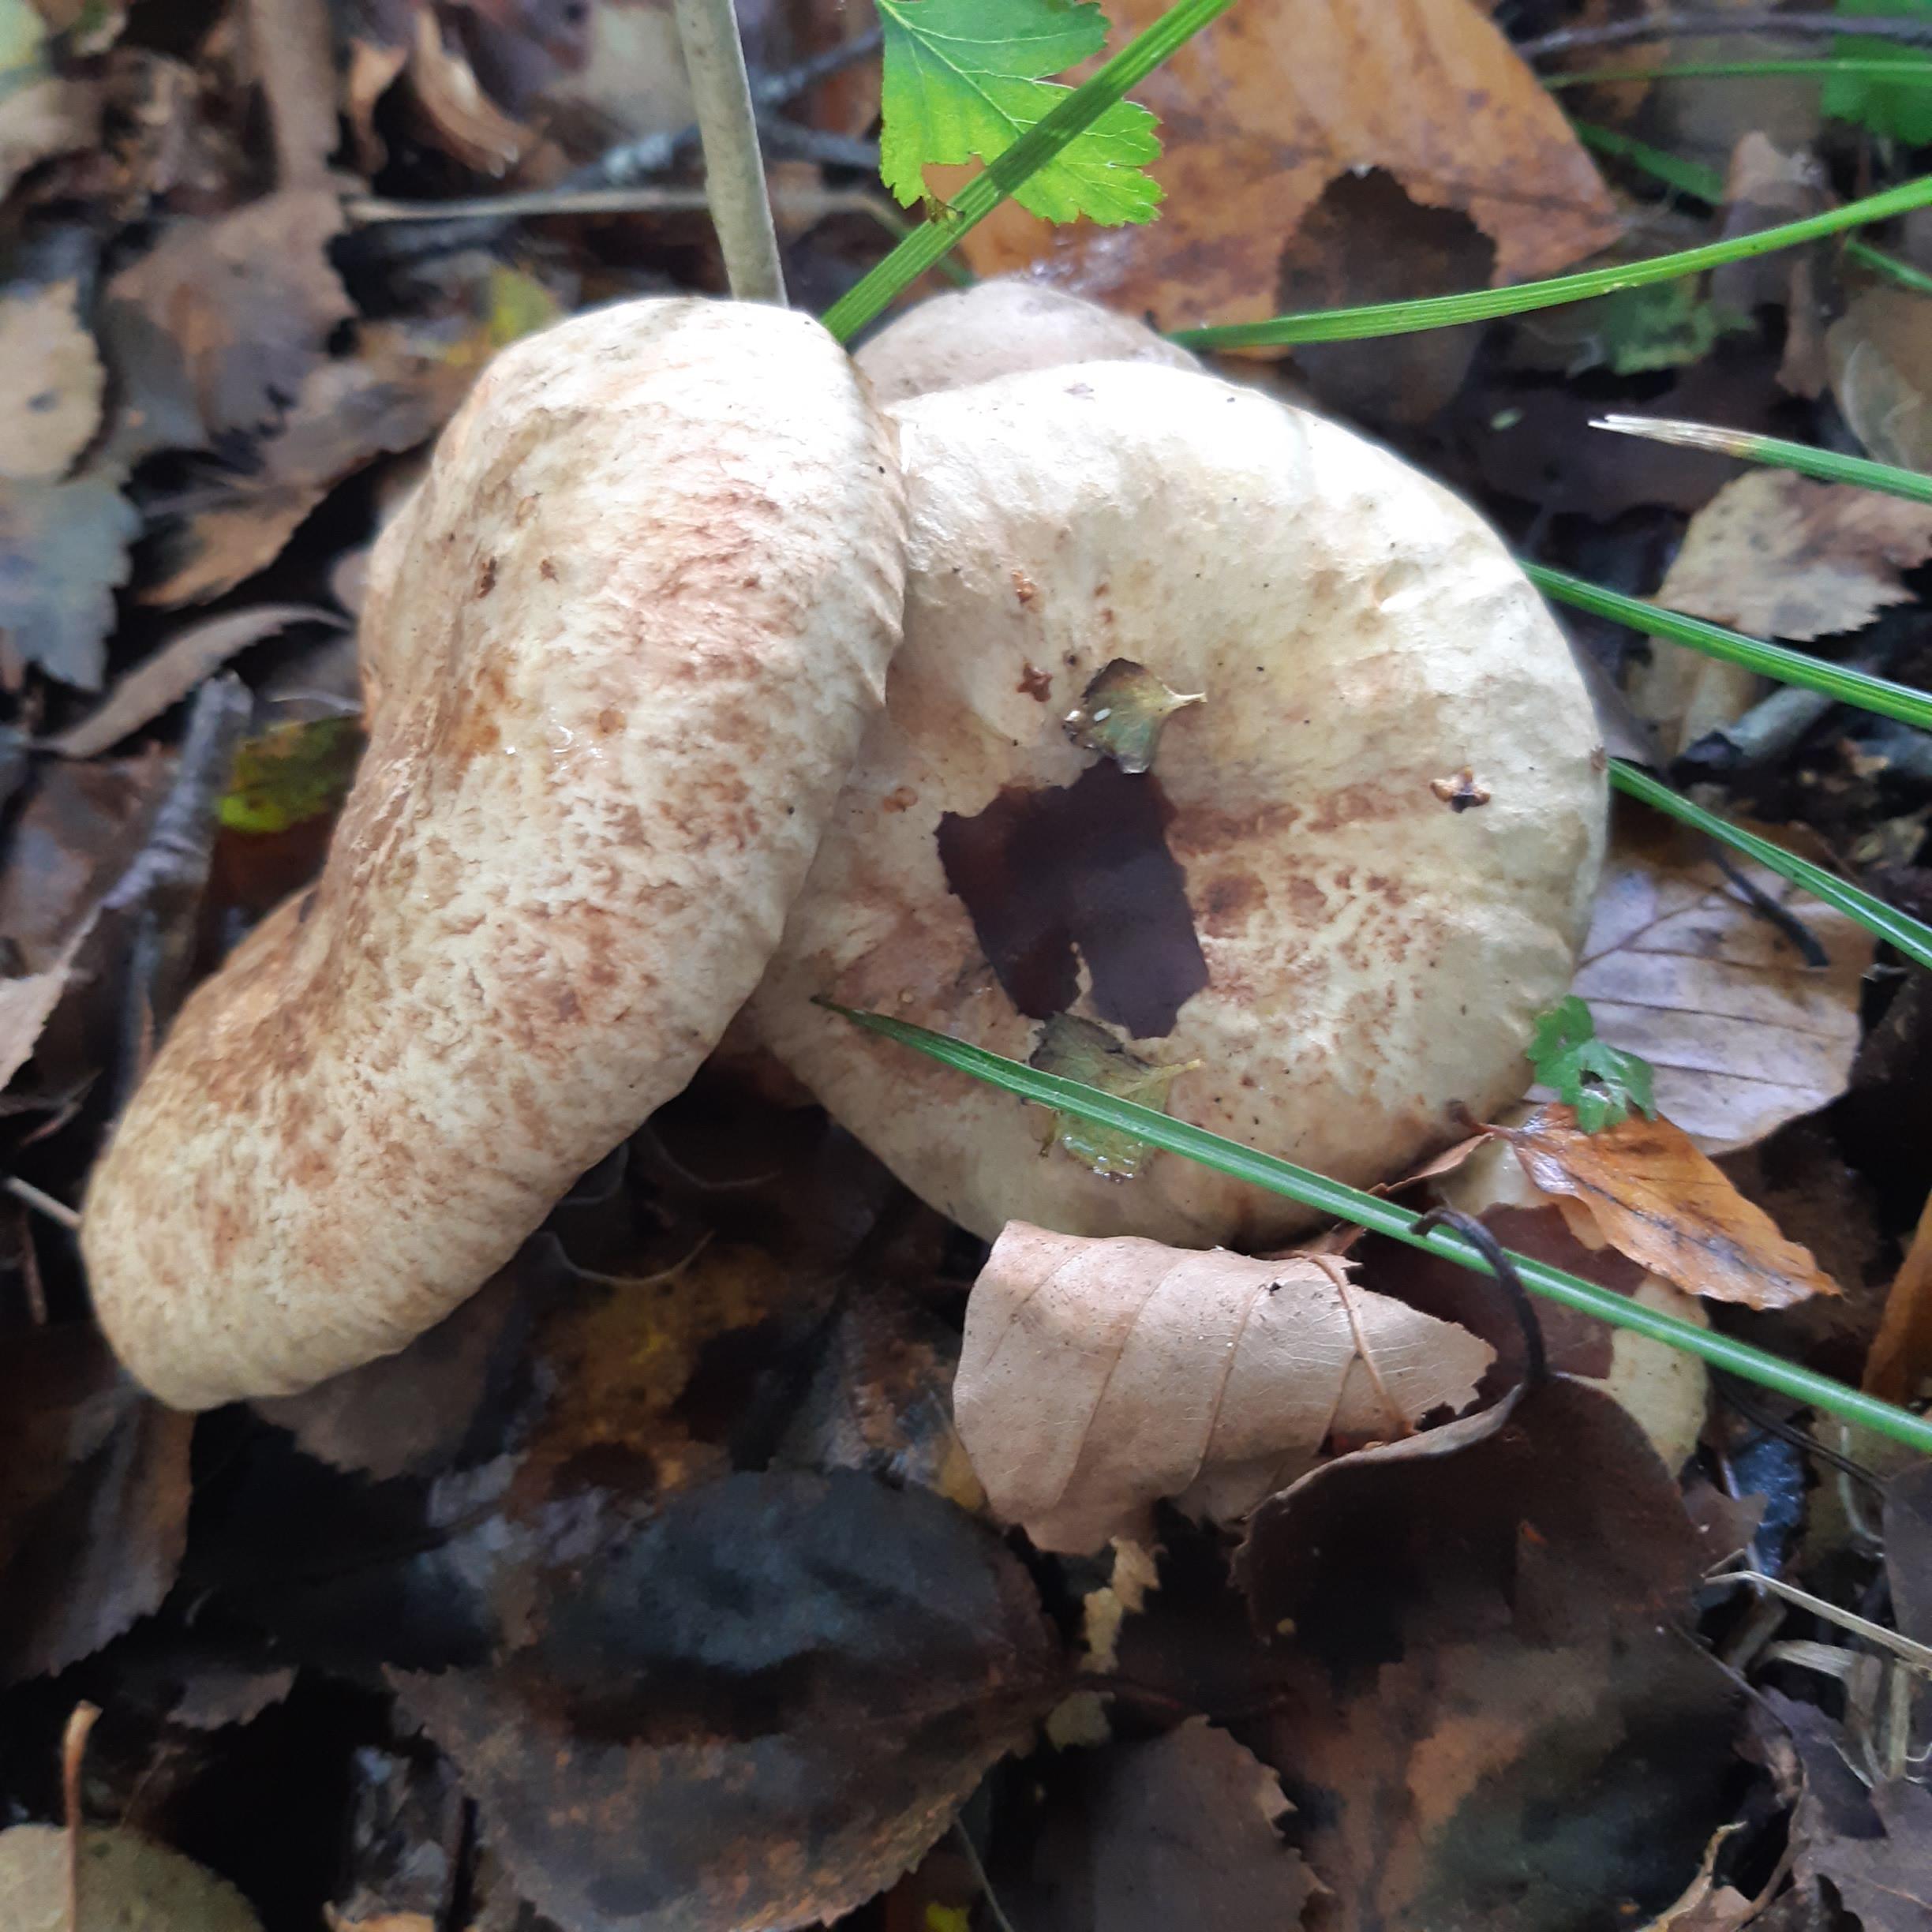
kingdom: Fungi
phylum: Basidiomycota
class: Agaricomycetes
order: Boletales
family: Paxillaceae
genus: Paxillus
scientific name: Paxillus rubicundulus
